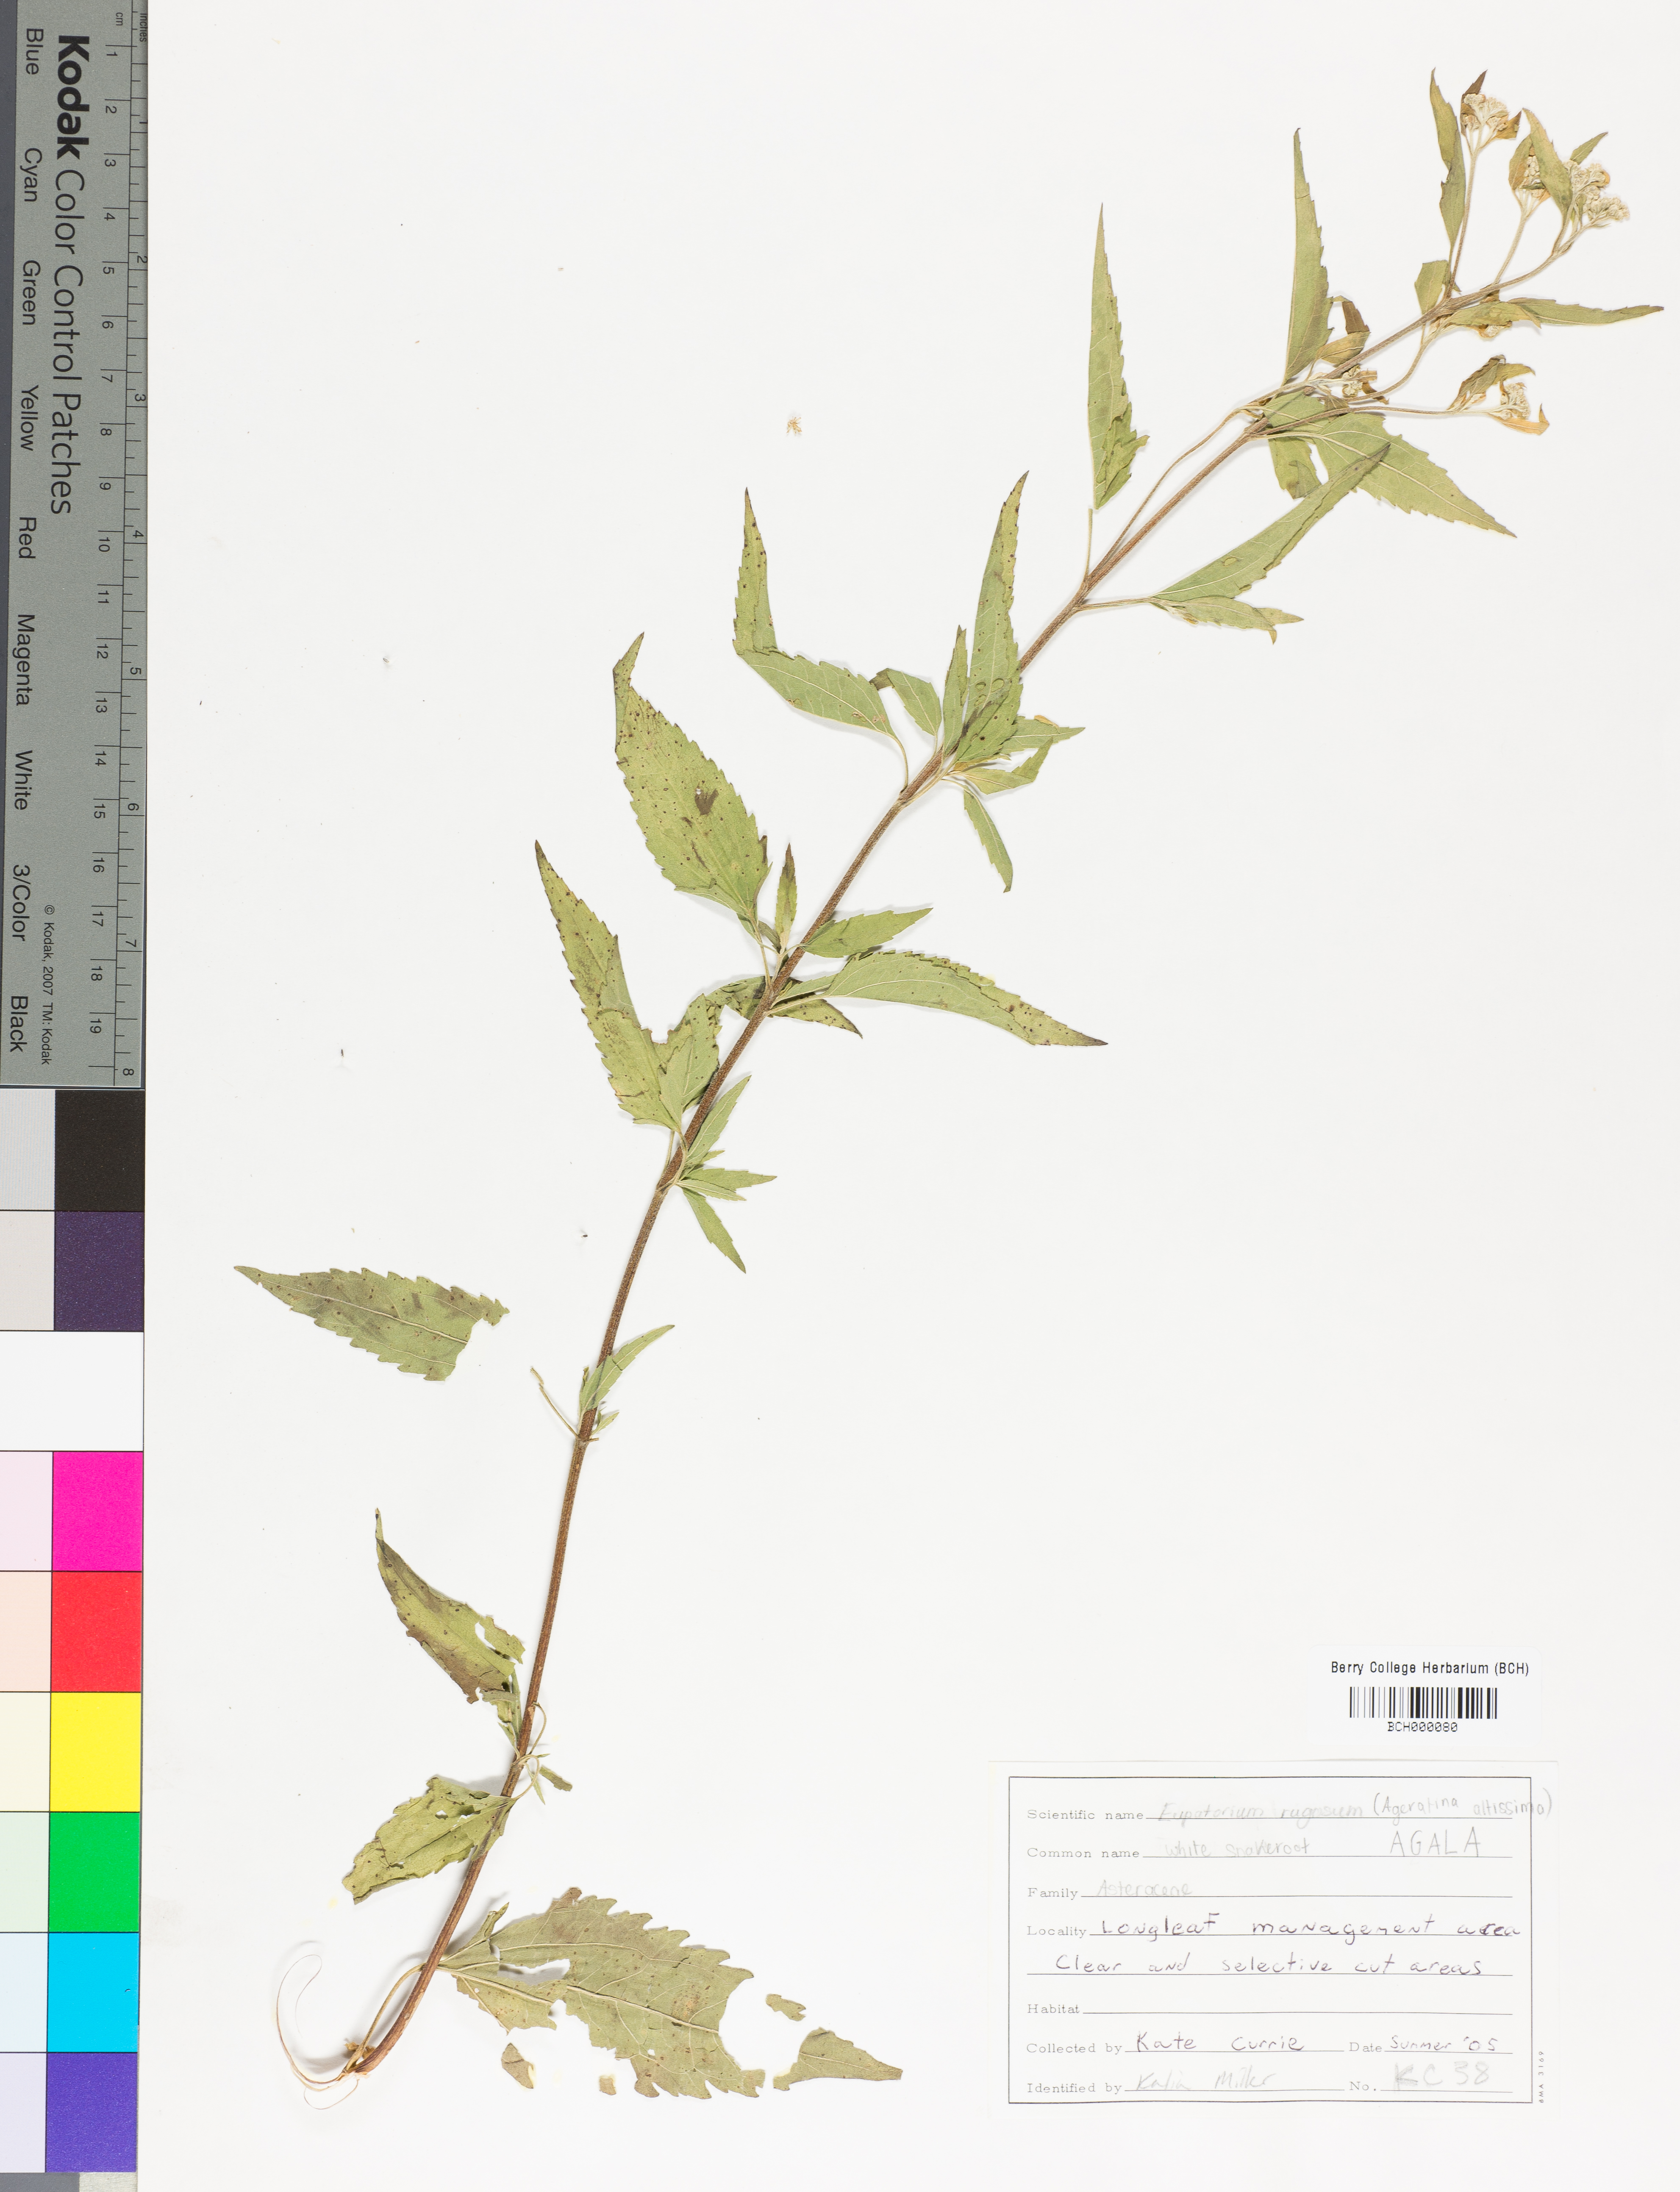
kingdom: Plantae
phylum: Tracheophyta
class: Magnoliopsida
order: Asterales
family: Asteraceae
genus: Ageratina
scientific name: Ageratina altissima
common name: White snakeroot
